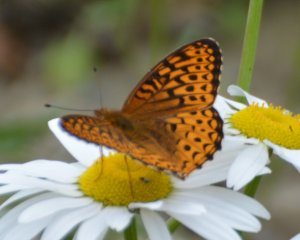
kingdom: Animalia
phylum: Arthropoda
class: Insecta
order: Lepidoptera
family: Nymphalidae
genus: Speyeria
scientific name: Speyeria atlantis
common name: Atlantis Fritillary
